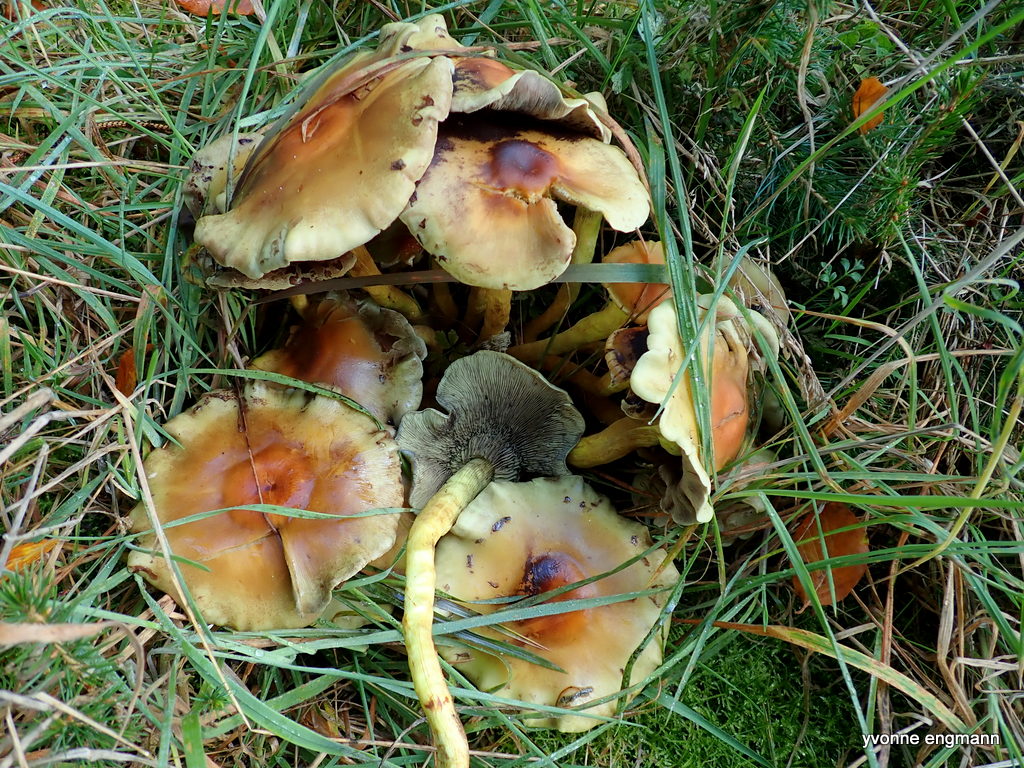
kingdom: Fungi
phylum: Basidiomycota
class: Agaricomycetes
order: Agaricales
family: Strophariaceae
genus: Hypholoma
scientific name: Hypholoma fasciculare
